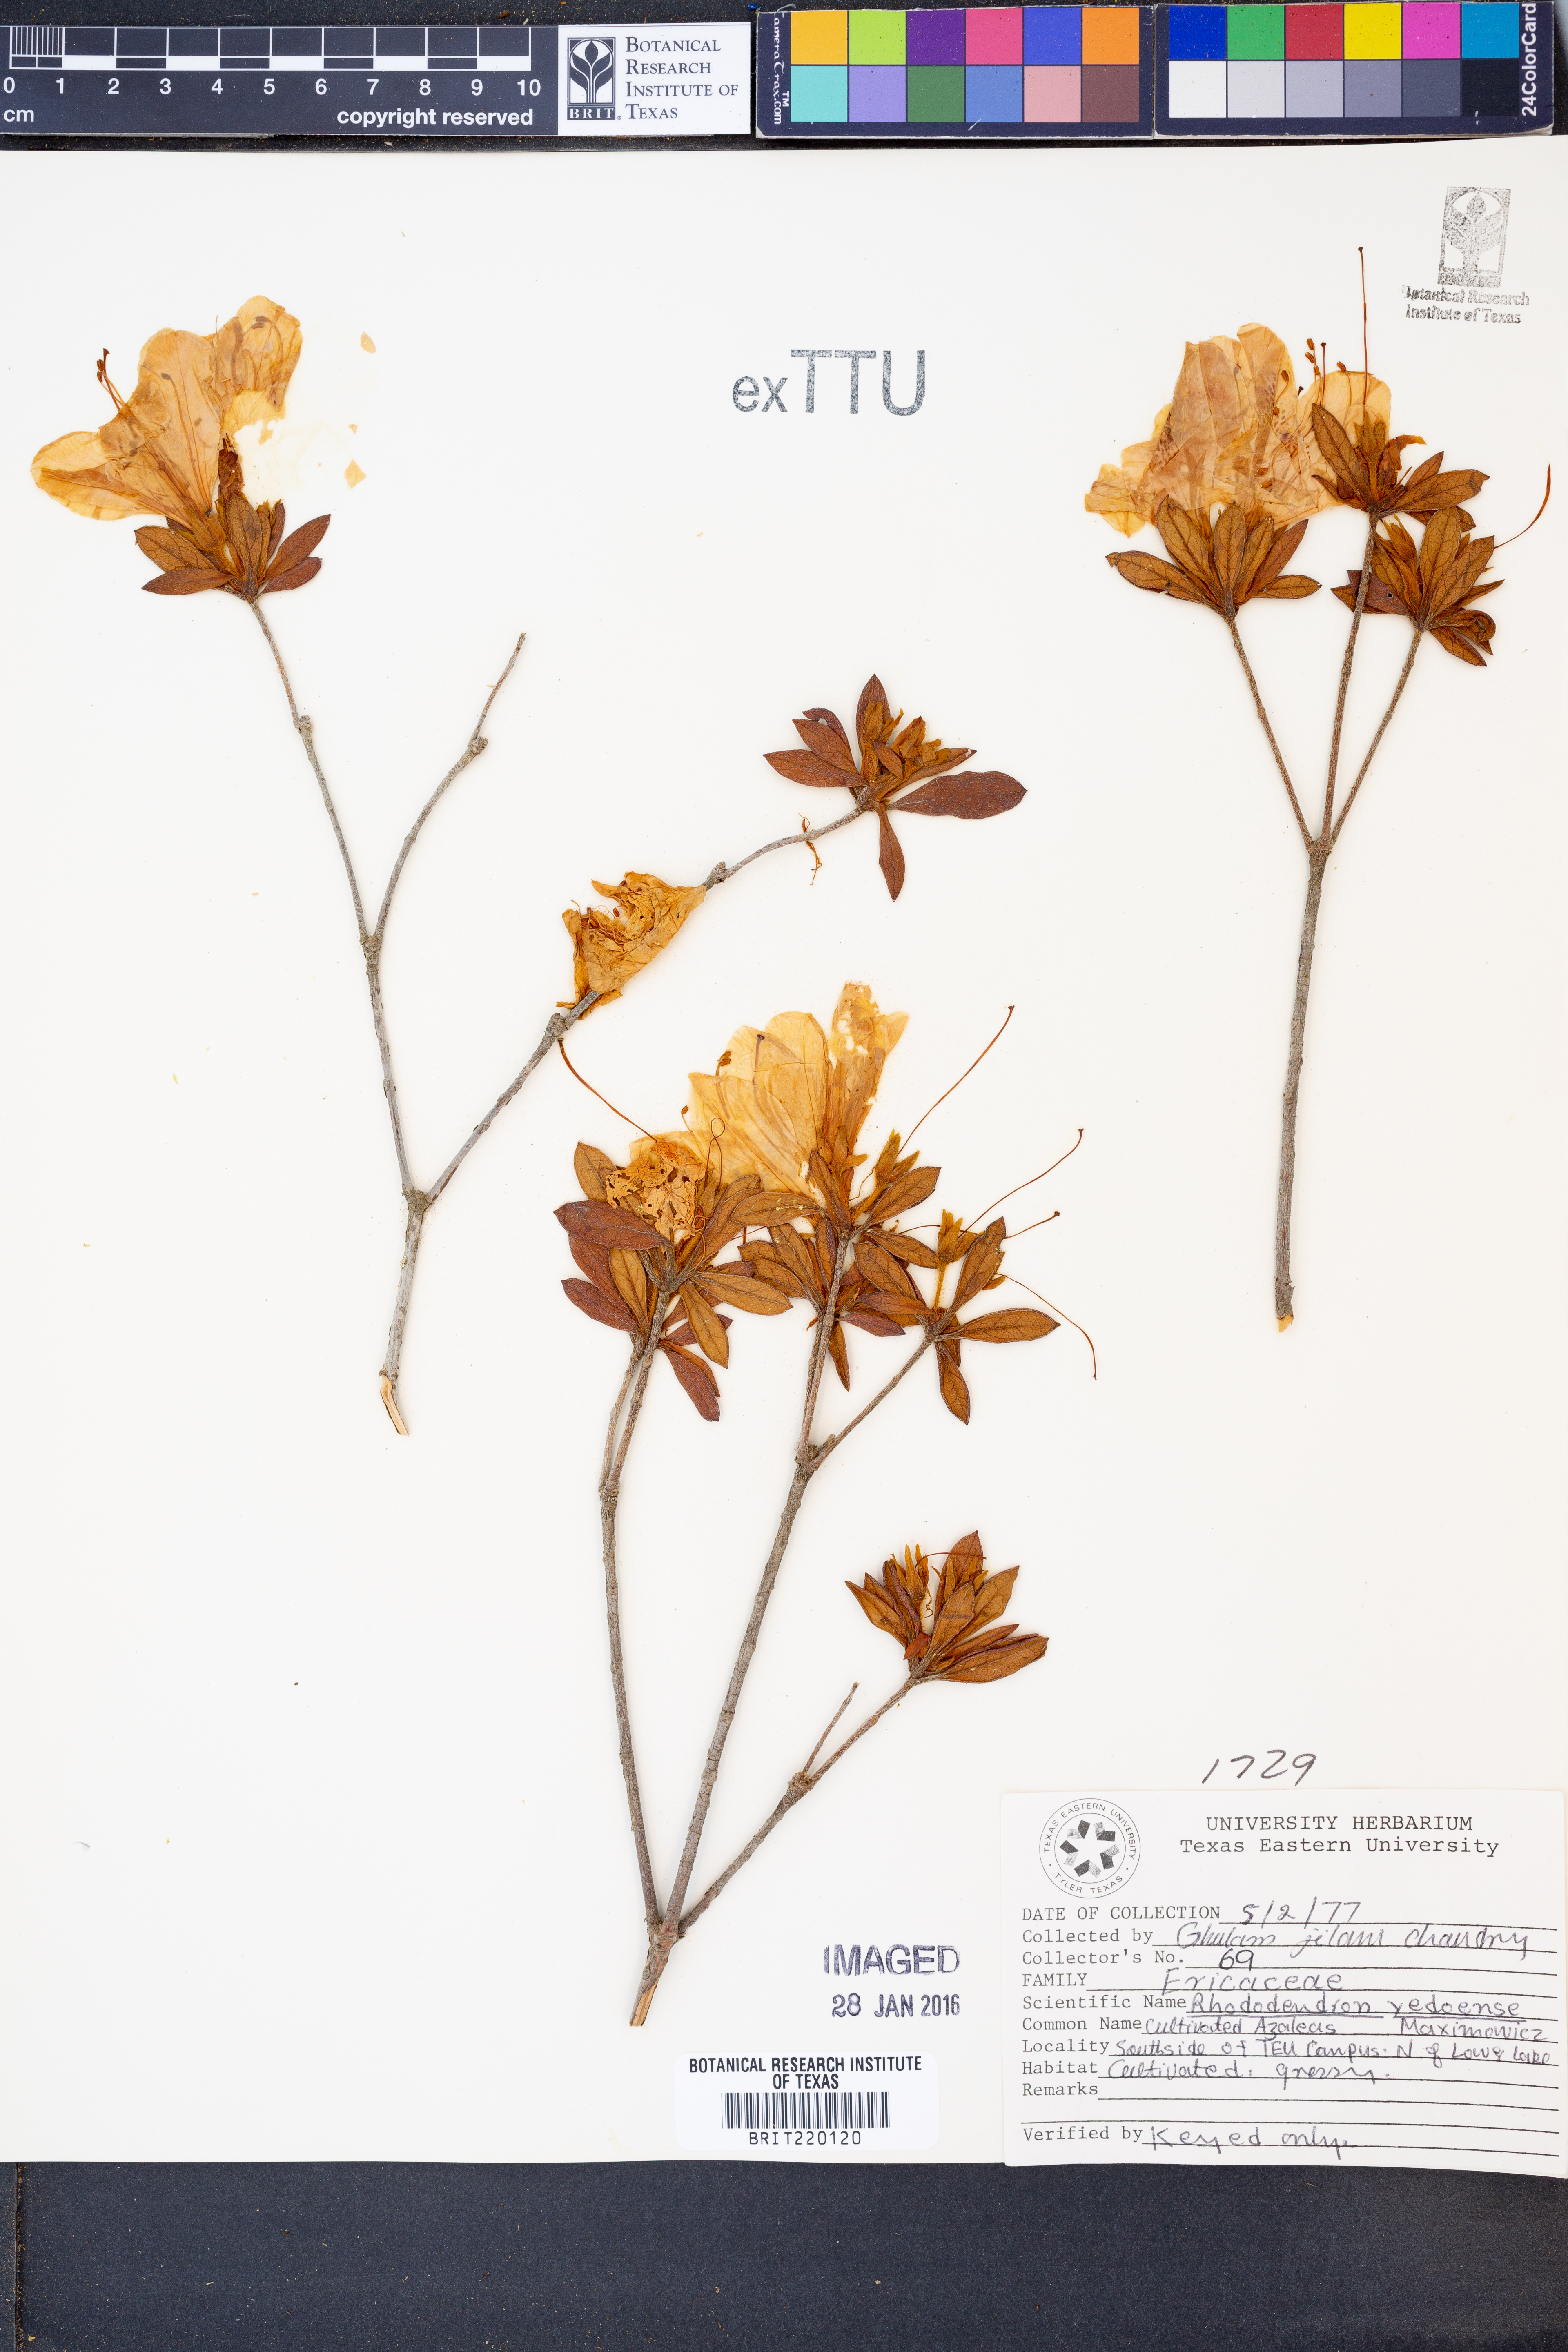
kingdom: Plantae
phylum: Tracheophyta
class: Magnoliopsida
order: Ericales
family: Ericaceae
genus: Rhododendron
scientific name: Rhododendron yedoense
